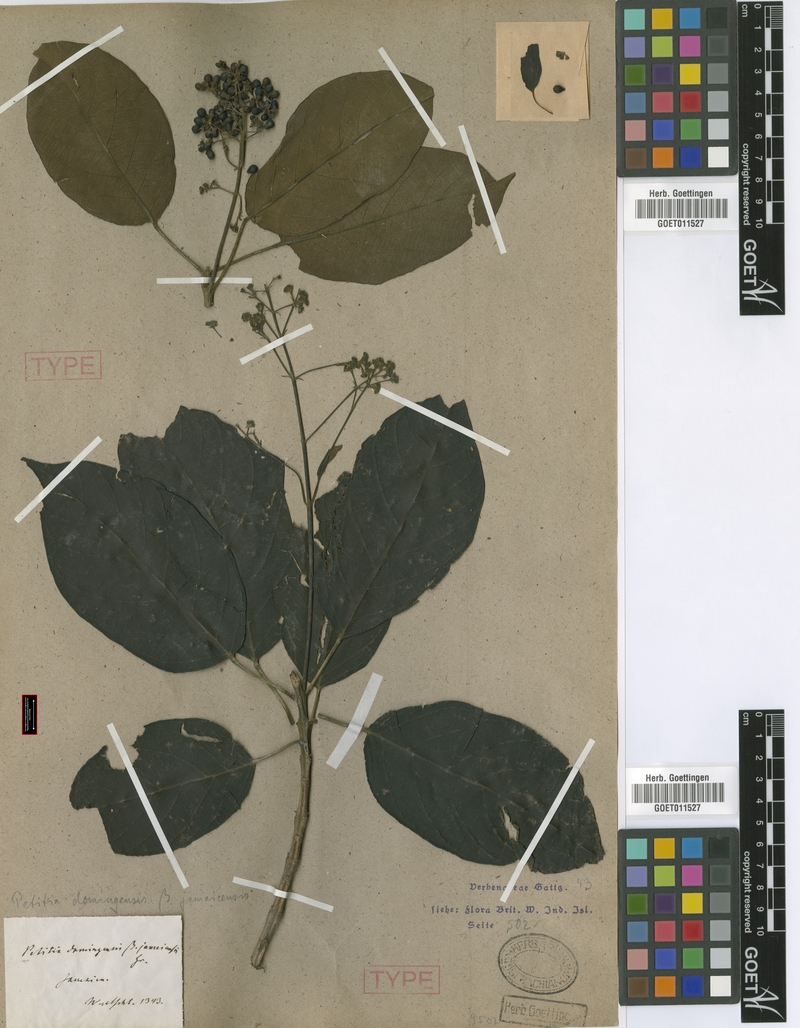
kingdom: Plantae
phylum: Tracheophyta
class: Magnoliopsida
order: Lamiales
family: Lamiaceae
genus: Petitia
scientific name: Petitia domingensis
